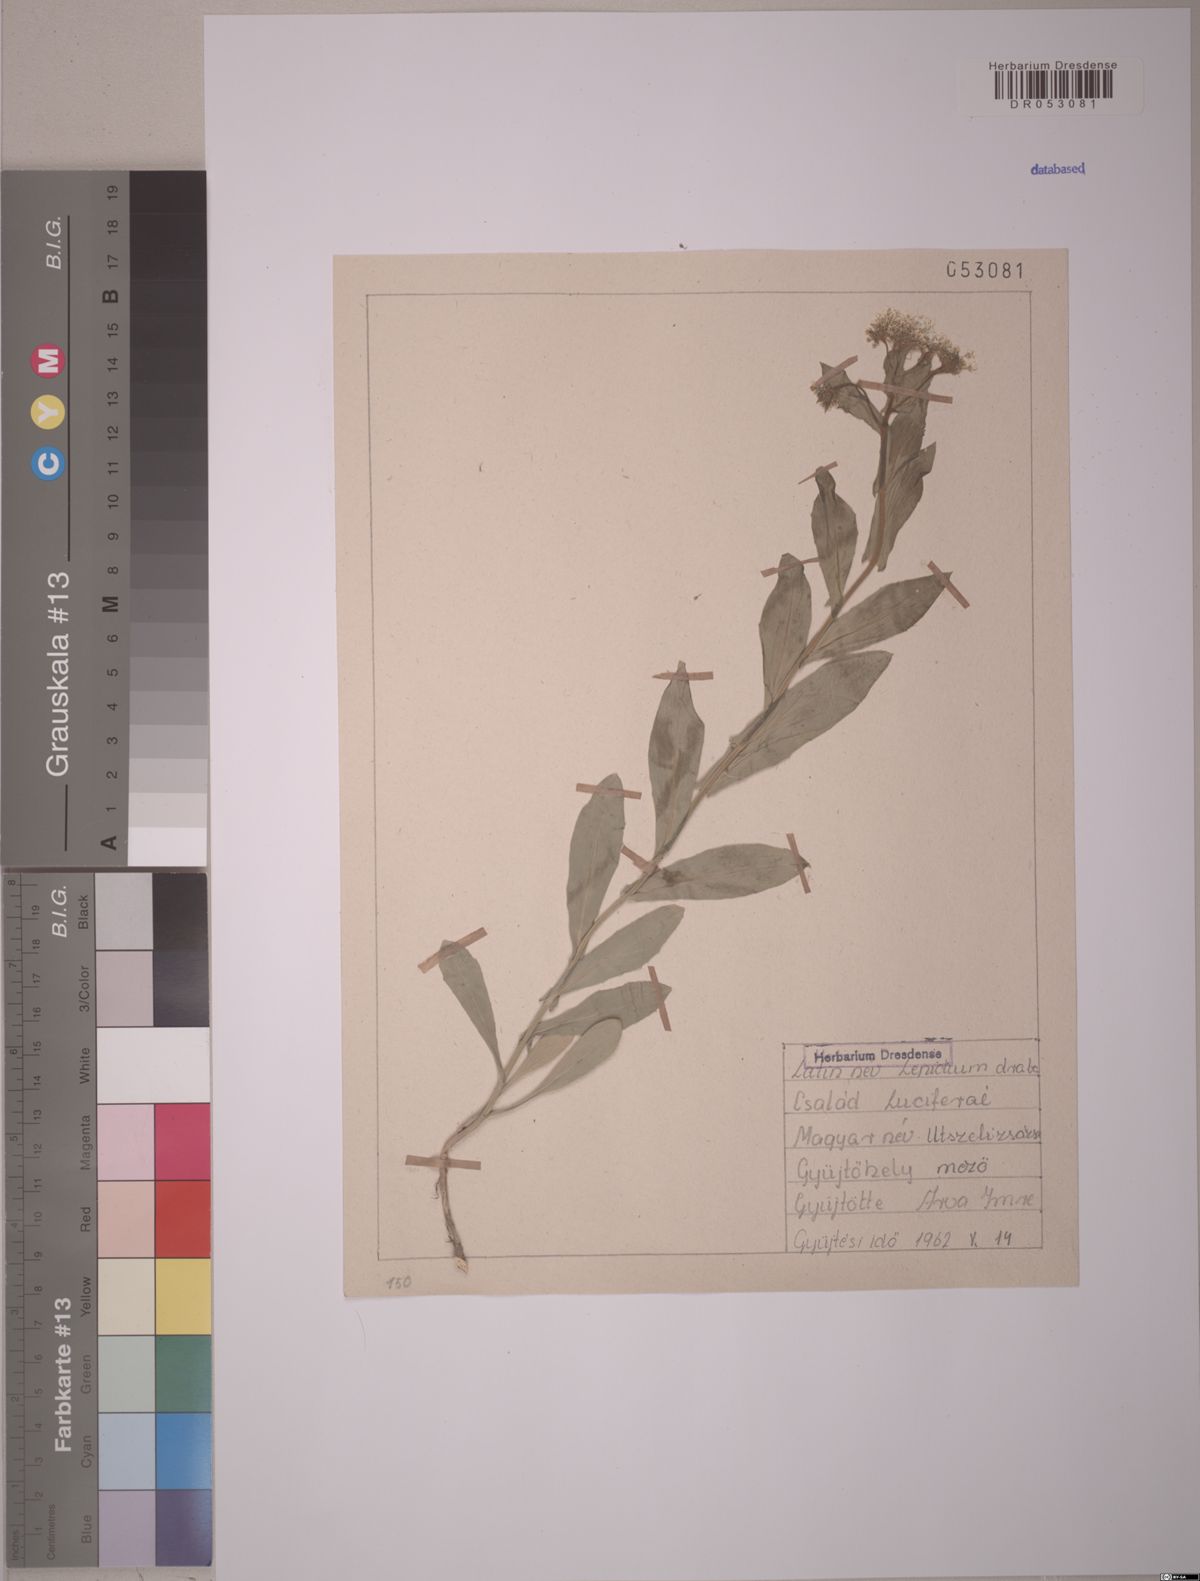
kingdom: Plantae
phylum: Tracheophyta
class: Magnoliopsida
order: Brassicales
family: Brassicaceae
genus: Lepidium
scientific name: Lepidium draba
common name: Hoary cress
